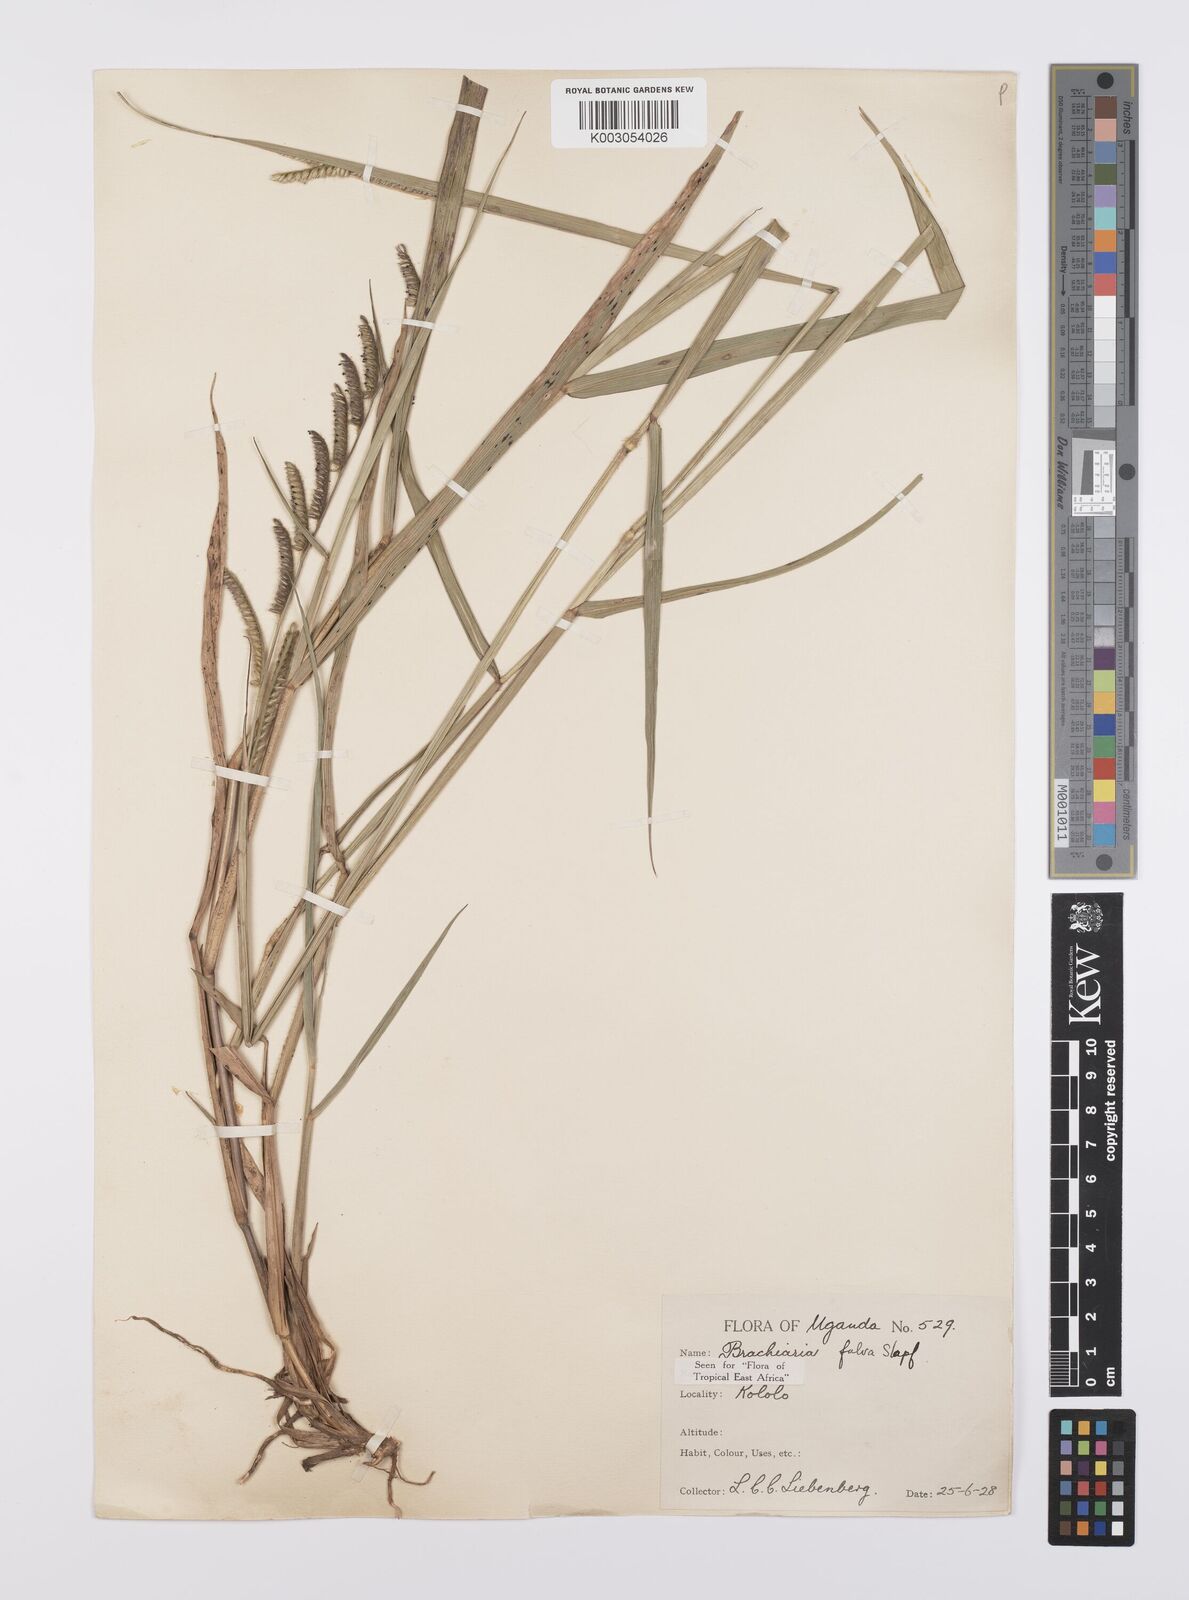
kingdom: Plantae
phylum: Tracheophyta
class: Liliopsida
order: Poales
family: Poaceae
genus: Urochloa
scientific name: Urochloa jubata
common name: Buffalograss
